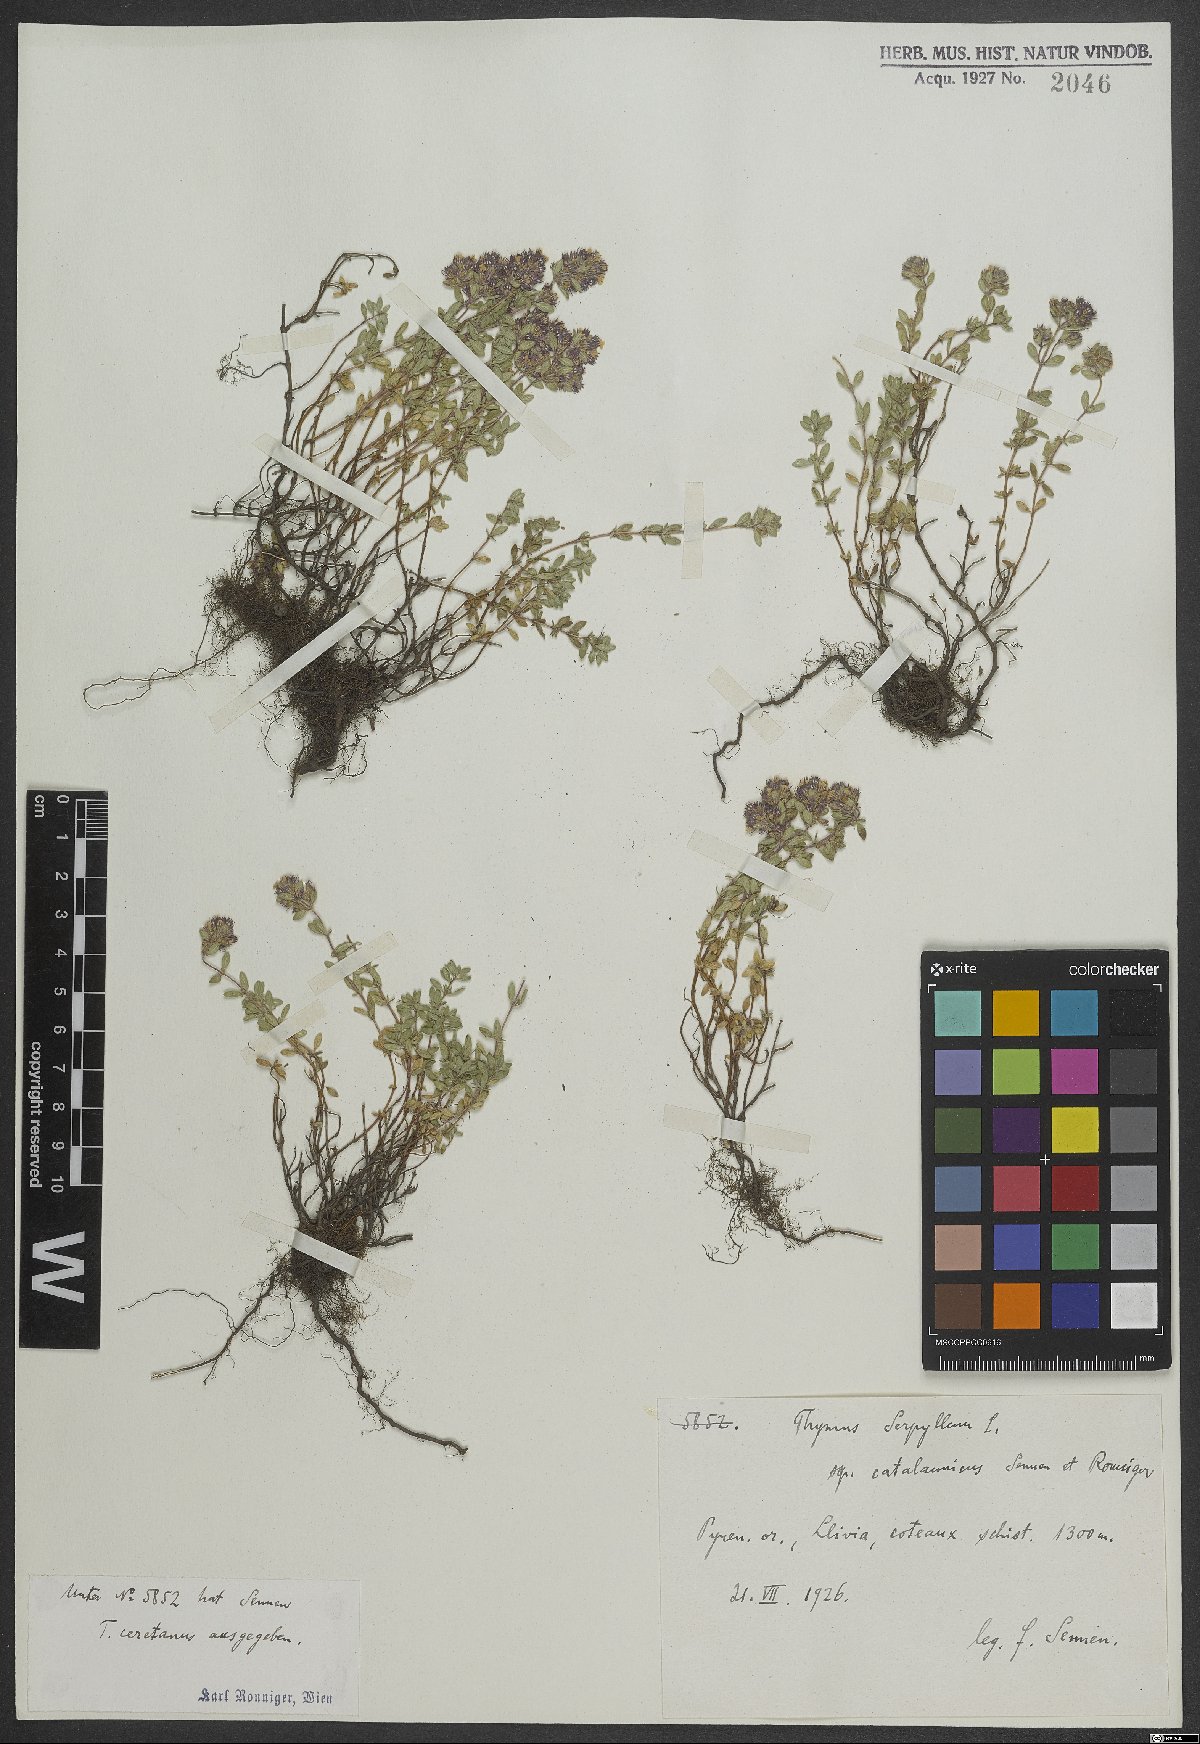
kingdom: Plantae
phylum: Tracheophyta
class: Magnoliopsida
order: Lamiales
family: Lamiaceae
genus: Thymus
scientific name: Thymus serpyllum
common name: Breckland thyme
